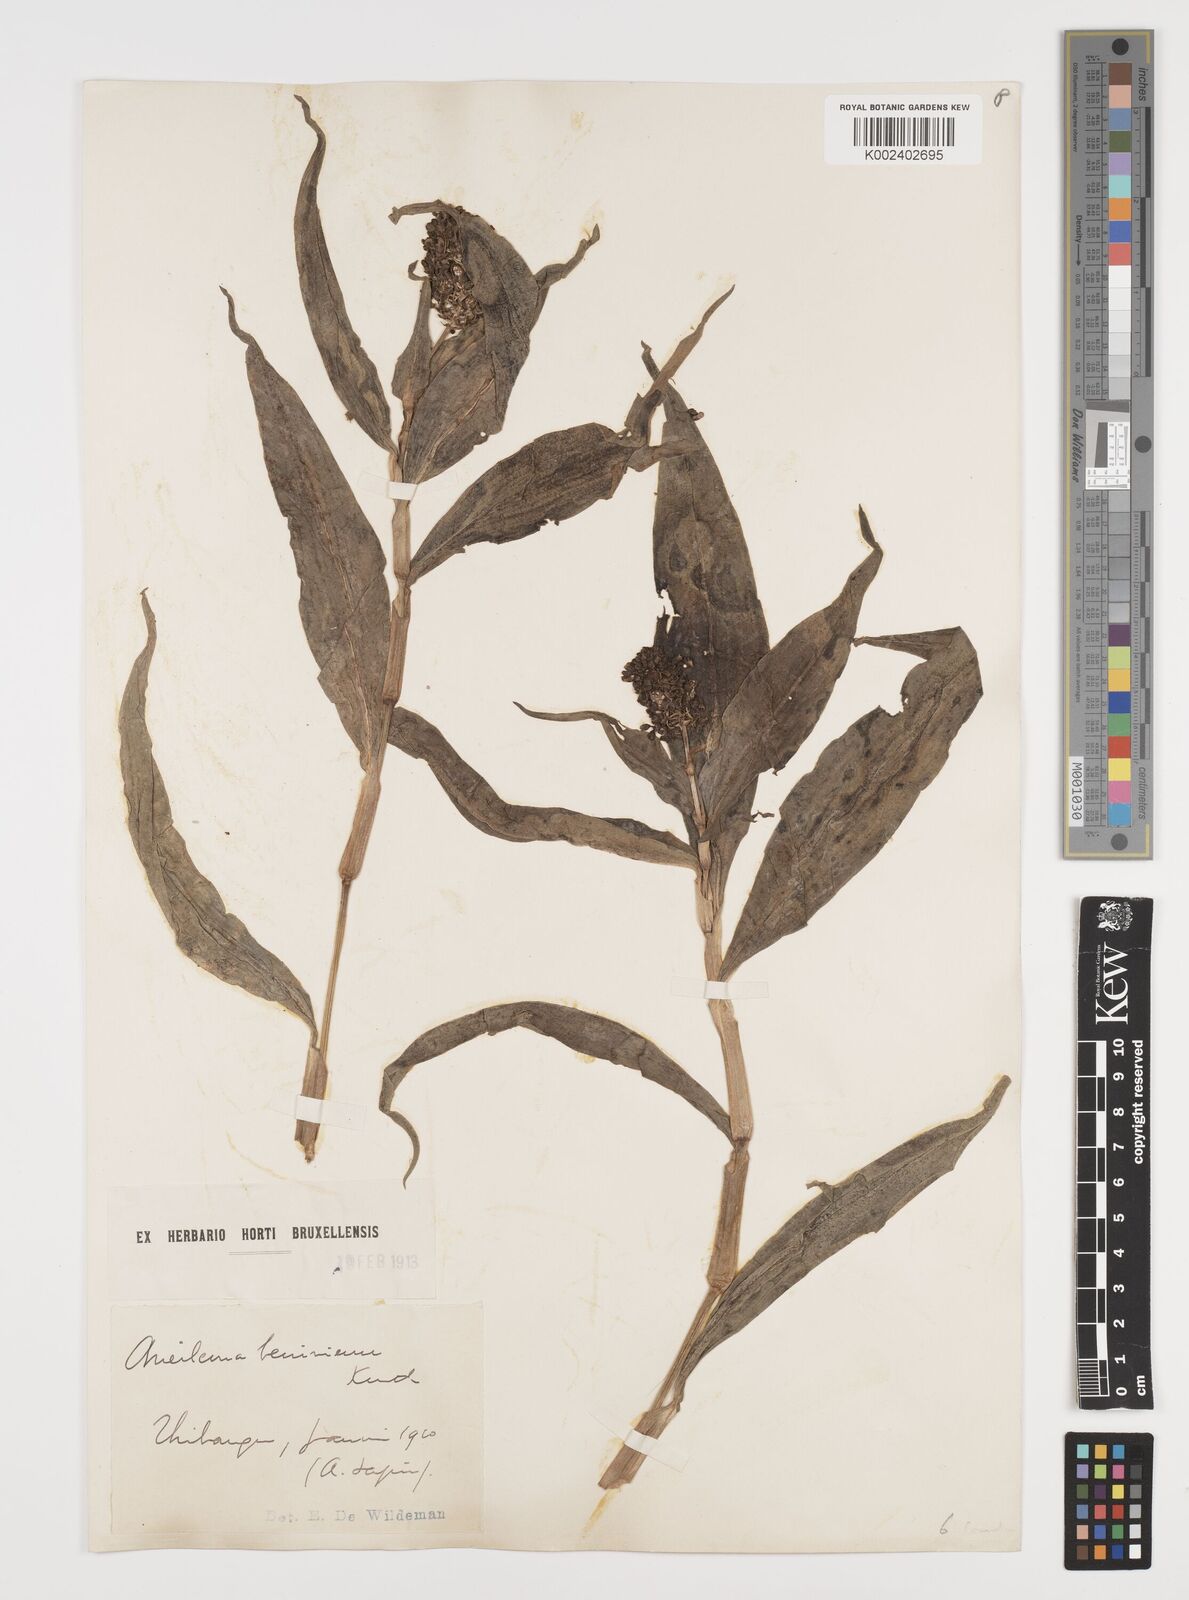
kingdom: Plantae
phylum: Tracheophyta
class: Liliopsida
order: Commelinales
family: Commelinaceae
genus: Aneilema
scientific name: Aneilema beniniense
